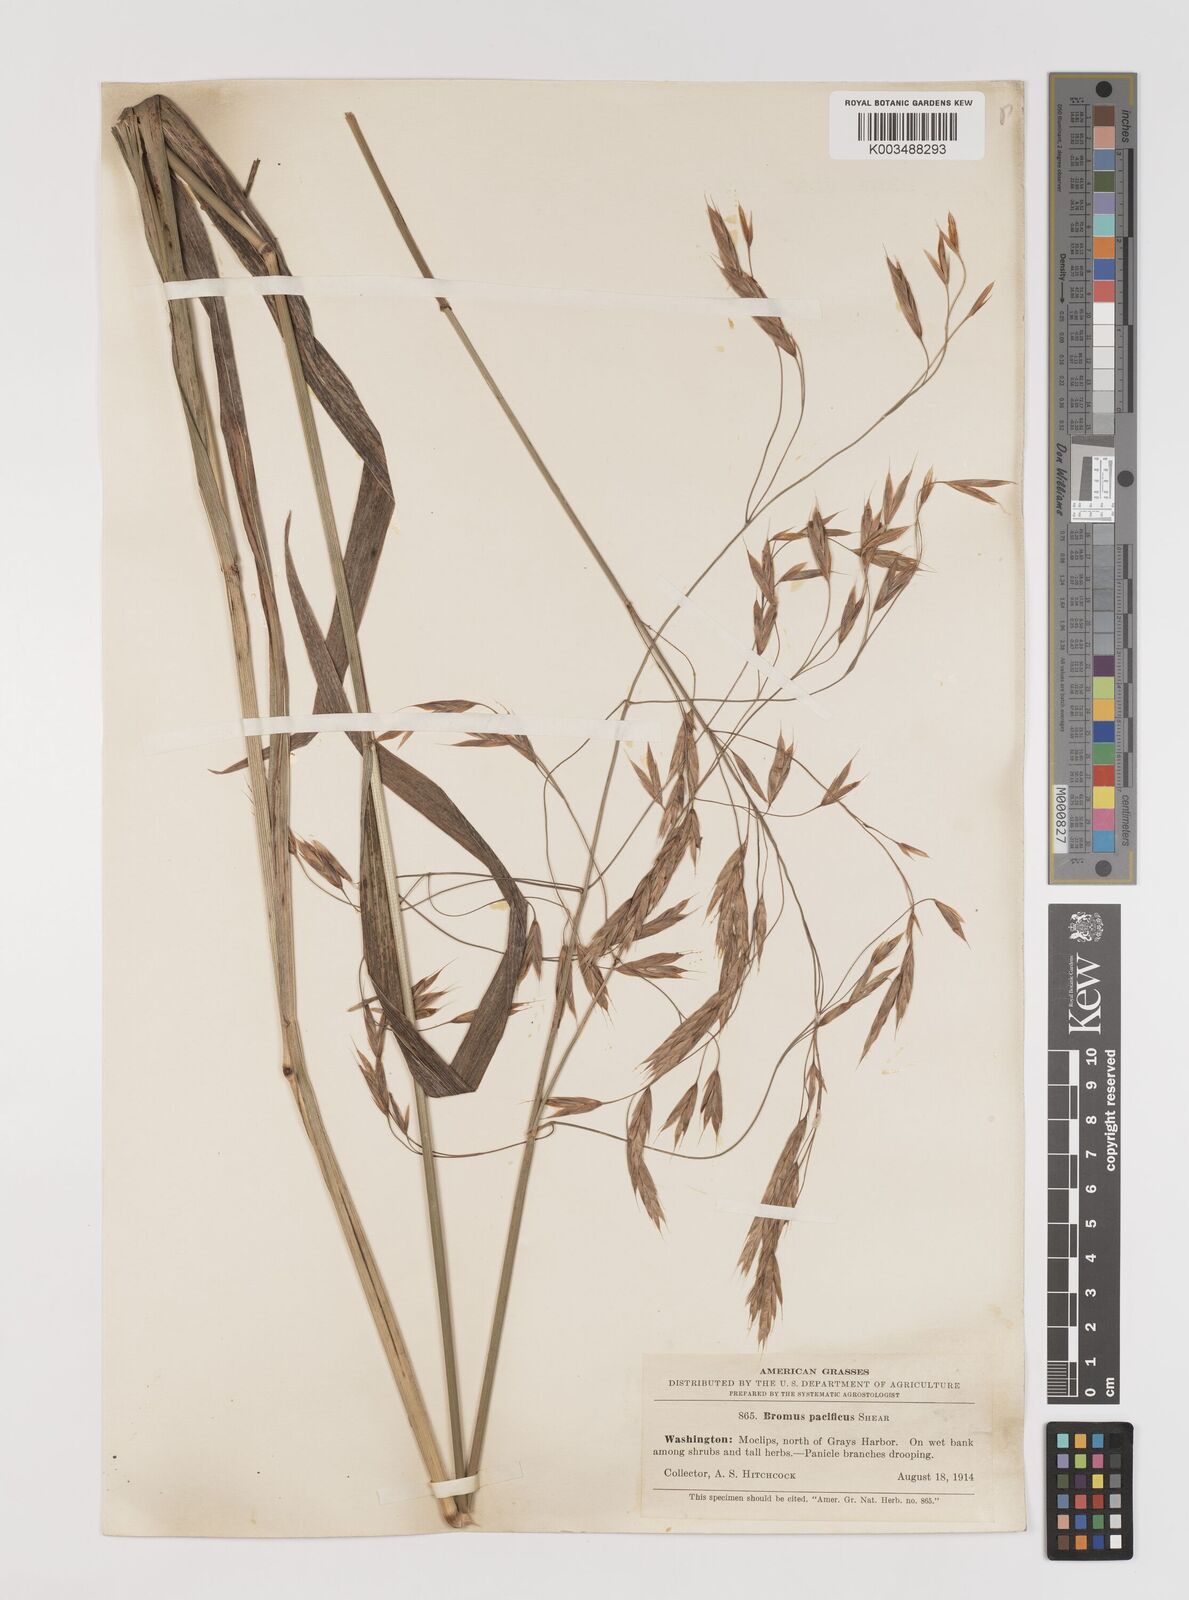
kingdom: Plantae
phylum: Tracheophyta
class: Liliopsida
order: Poales
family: Poaceae
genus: Bromus
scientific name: Bromus pacificus
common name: Pacific brome
